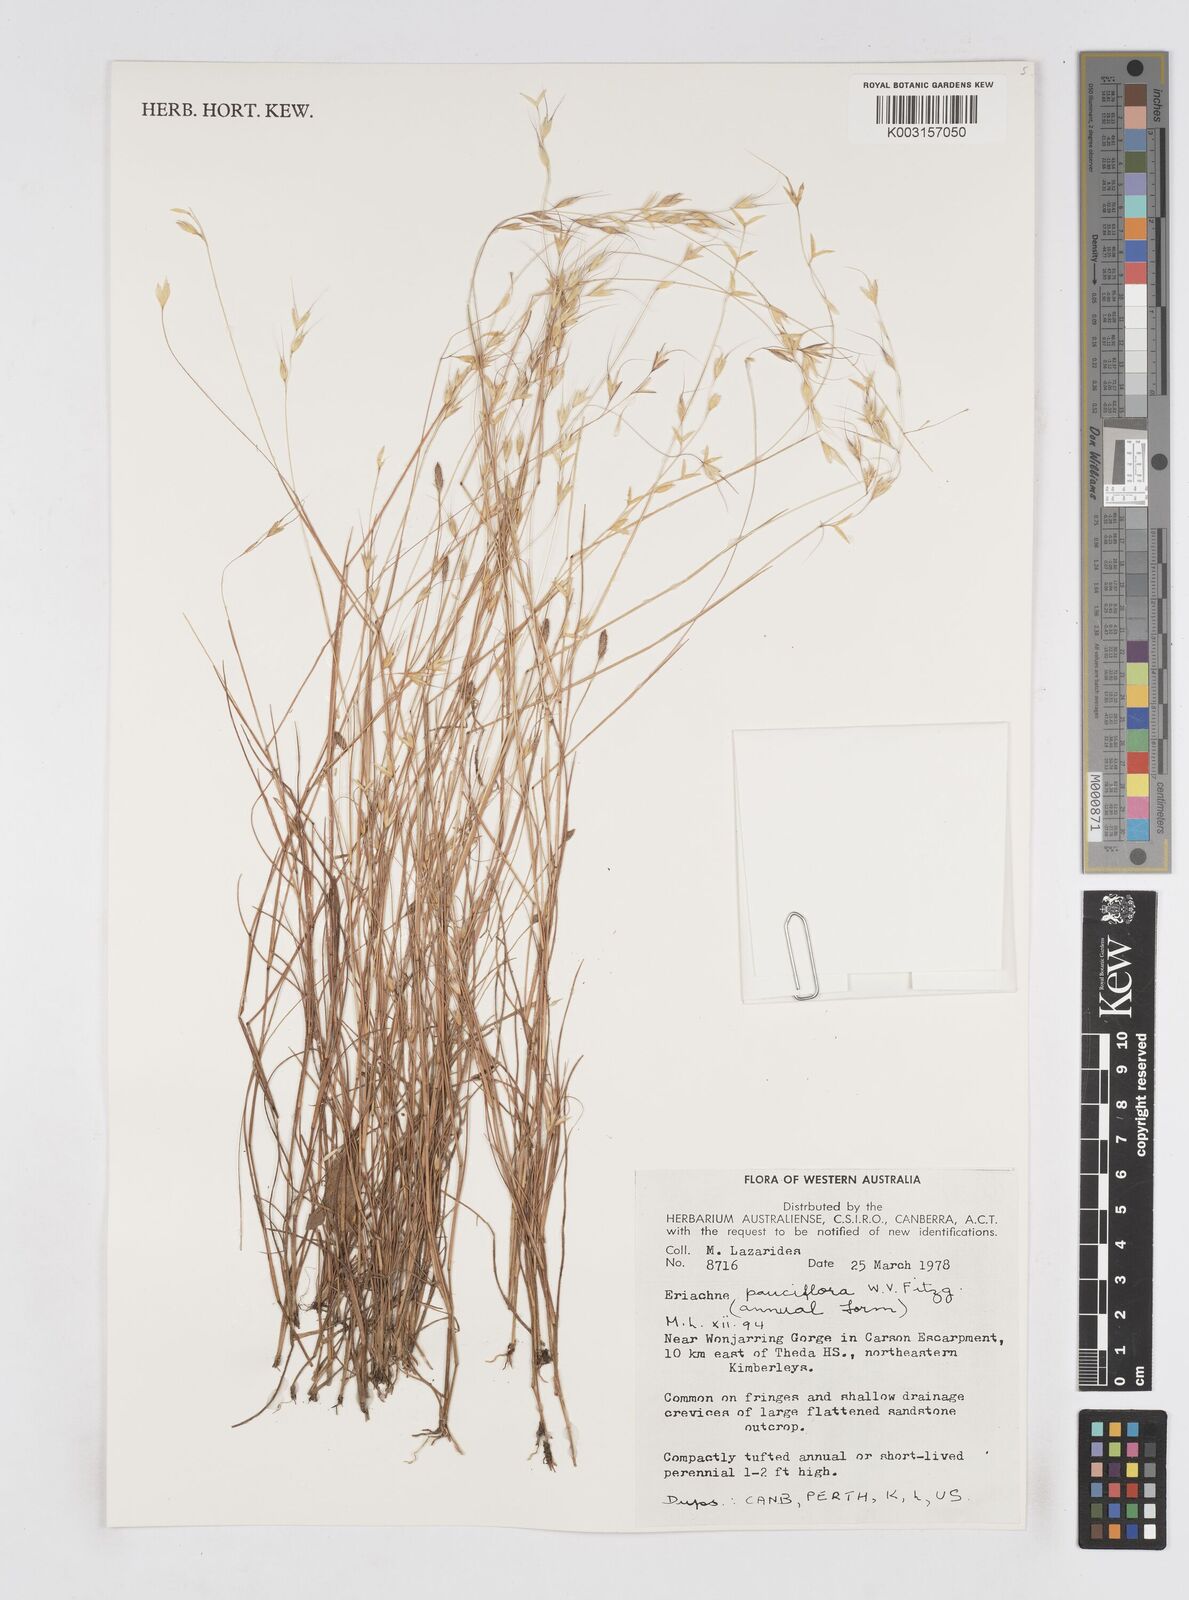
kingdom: Plantae
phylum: Tracheophyta
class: Liliopsida
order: Poales
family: Poaceae
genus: Eriachne
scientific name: Eriachne pauciflora
